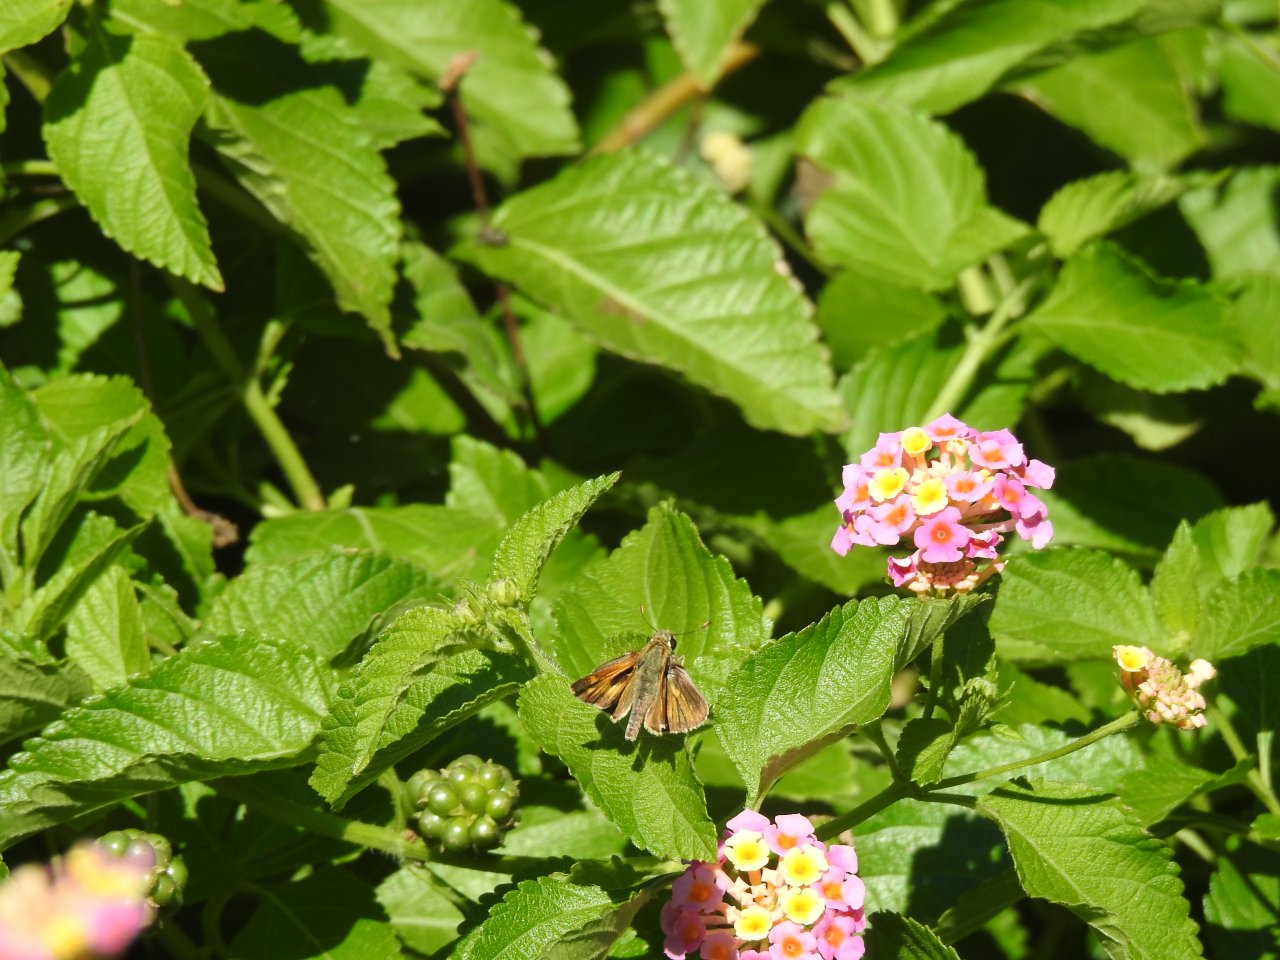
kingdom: Animalia
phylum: Arthropoda
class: Insecta
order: Lepidoptera
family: Hesperiidae
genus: Hylephila
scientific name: Hylephila phyleus
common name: Fiery Skipper
